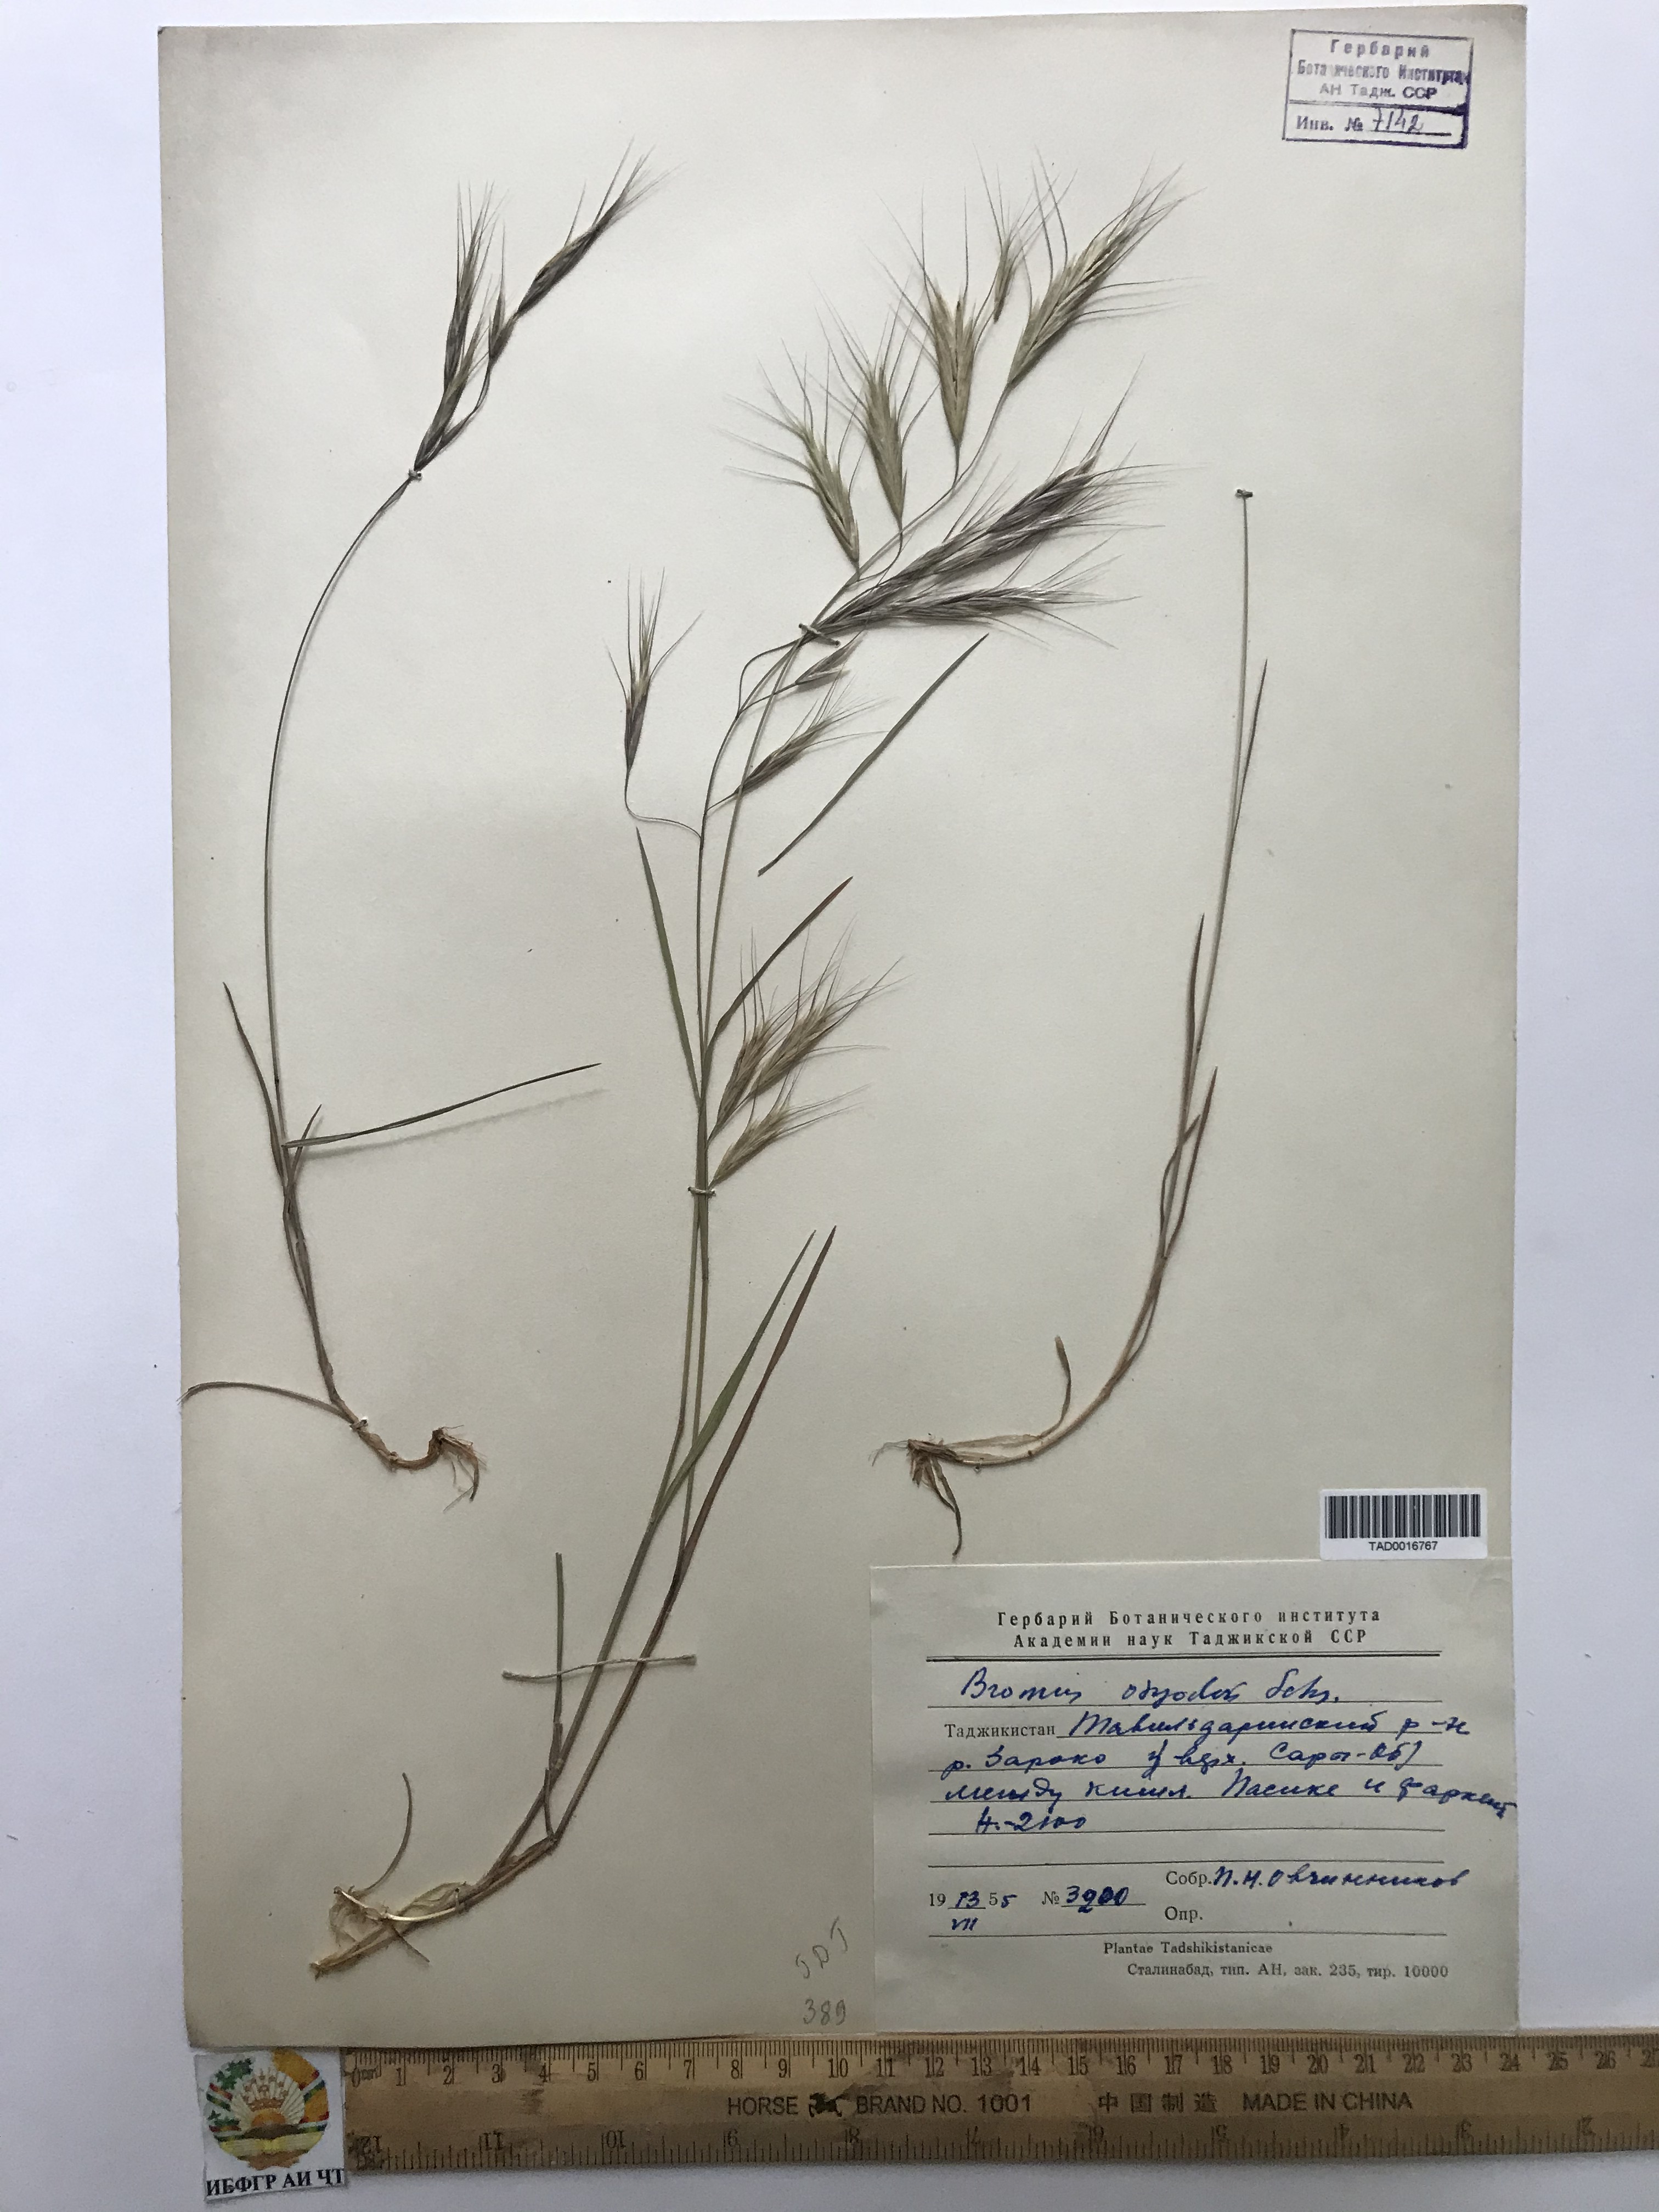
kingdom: Plantae
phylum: Tracheophyta
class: Liliopsida
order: Poales
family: Poaceae
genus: Bromus
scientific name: Bromus oxyodon
